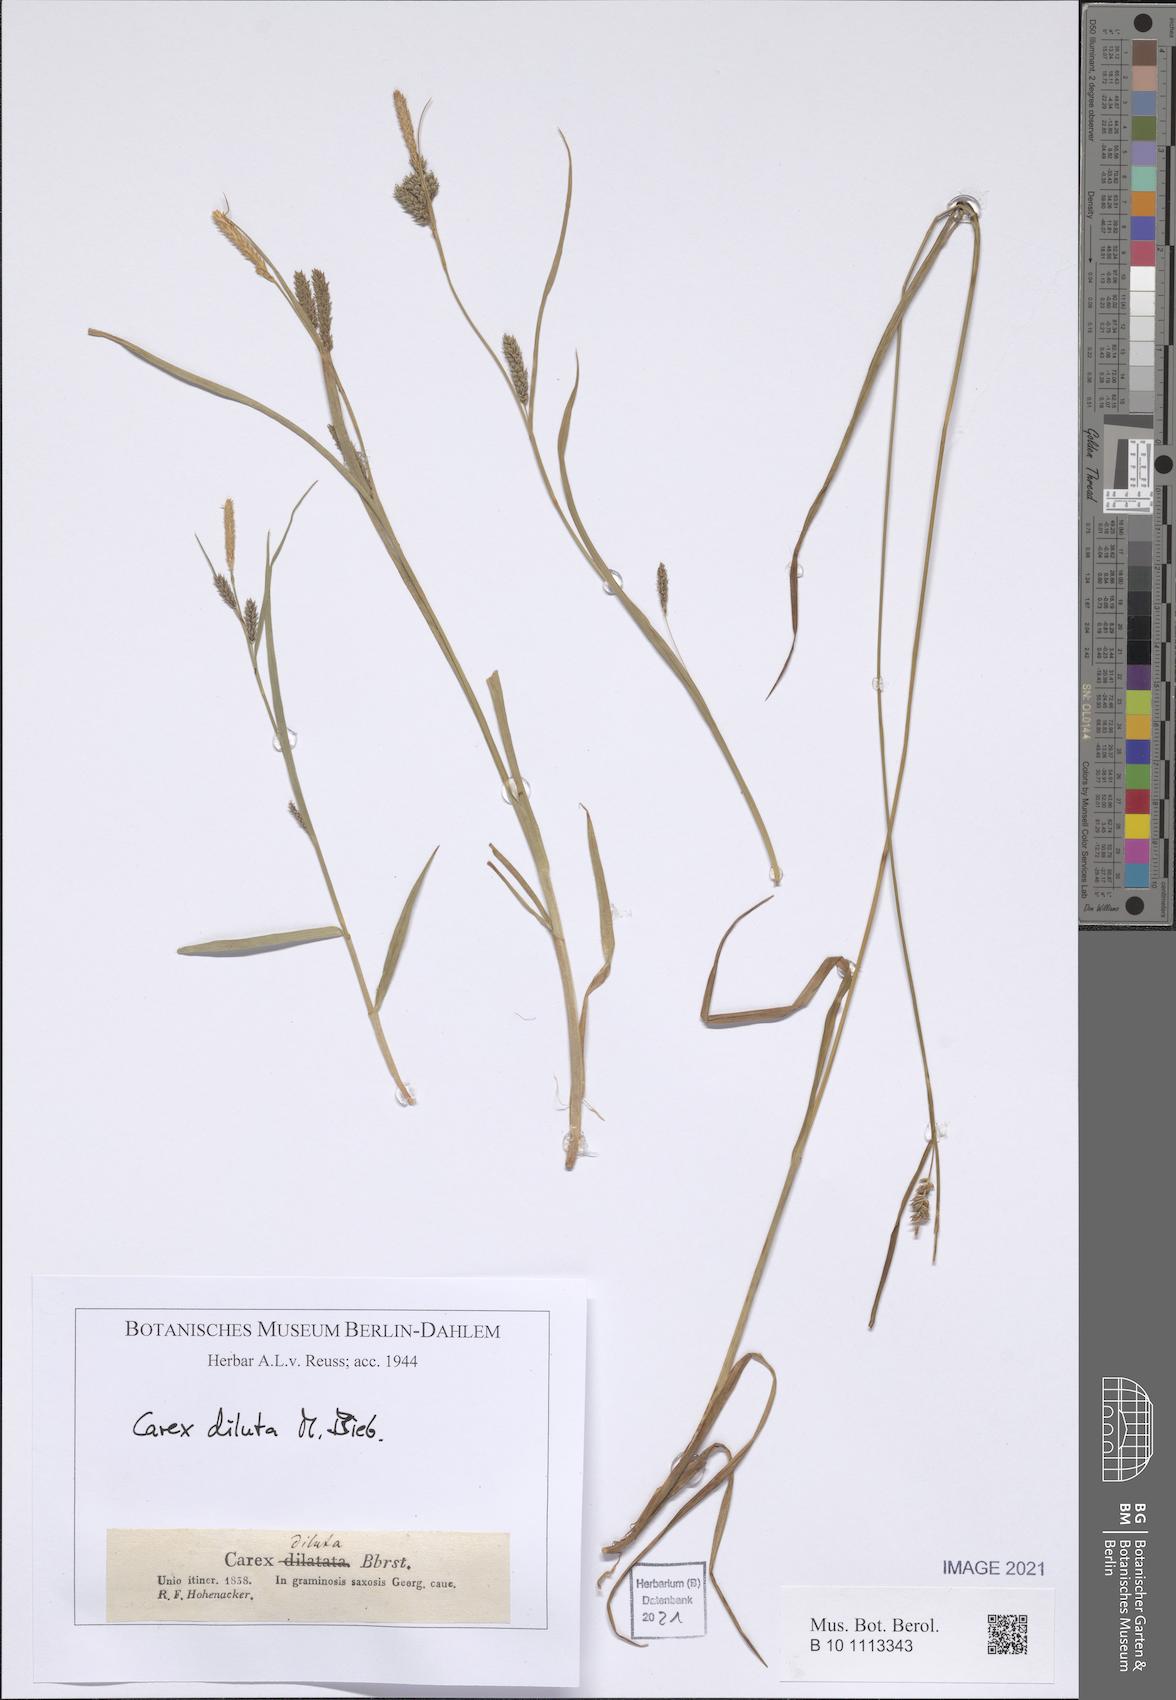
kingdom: Plantae
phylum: Tracheophyta
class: Liliopsida
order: Poales
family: Cyperaceae
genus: Carex
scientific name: Carex diluta
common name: Sedge
